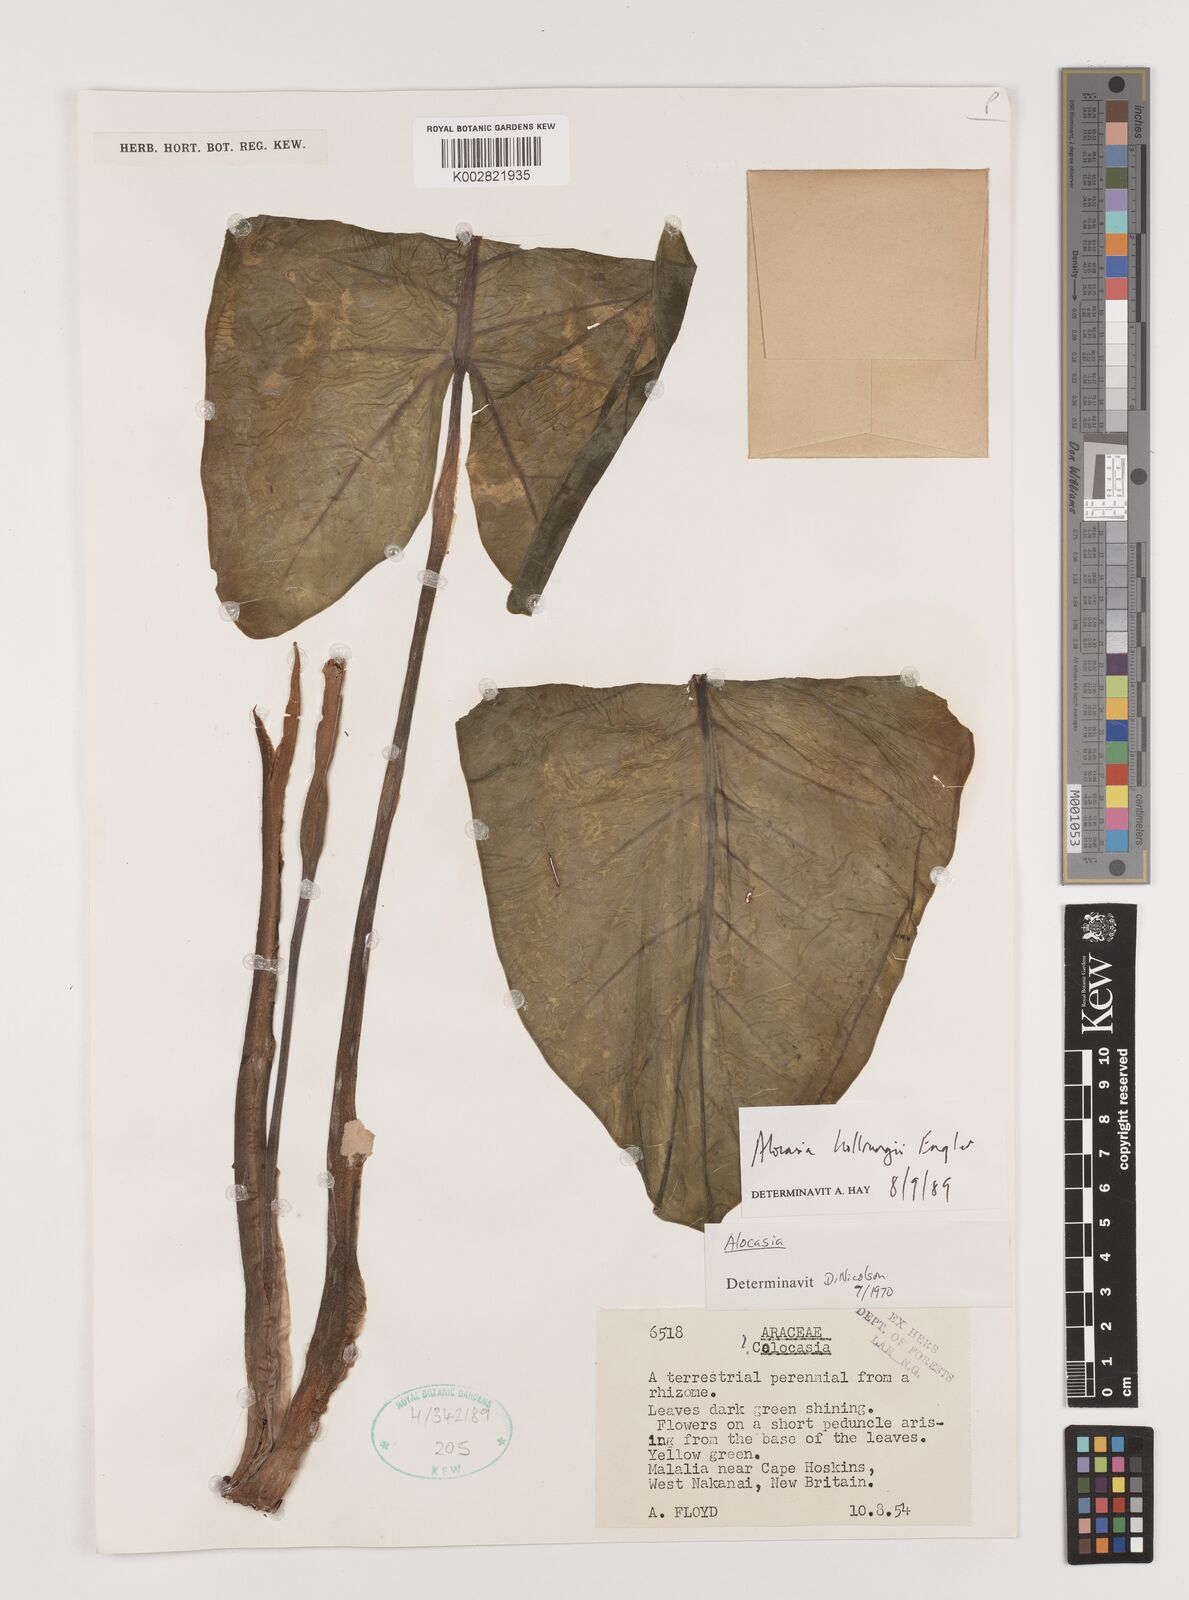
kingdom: Plantae
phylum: Tracheophyta
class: Liliopsida
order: Alismatales
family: Araceae
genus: Alocasia
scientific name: Alocasia hollrungii
